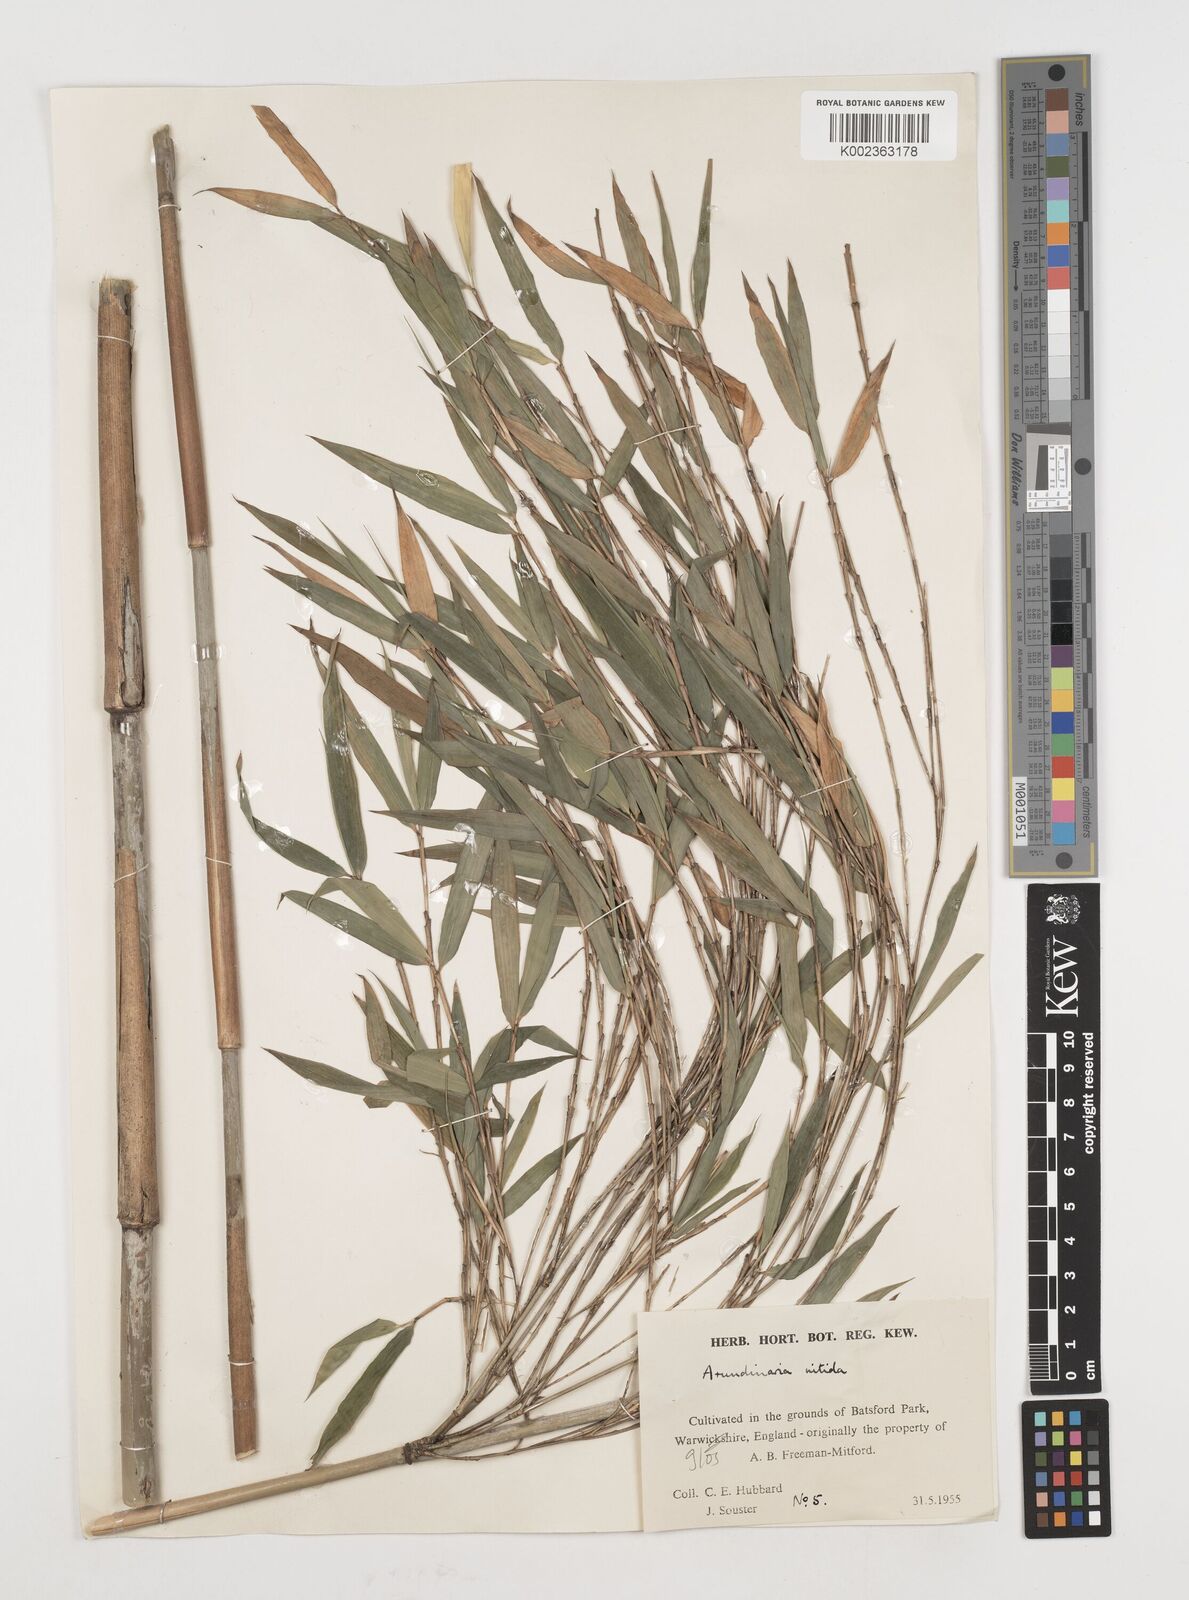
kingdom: Plantae
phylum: Tracheophyta
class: Liliopsida
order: Poales
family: Poaceae
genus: Fargesia
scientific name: Fargesia nitida ex
